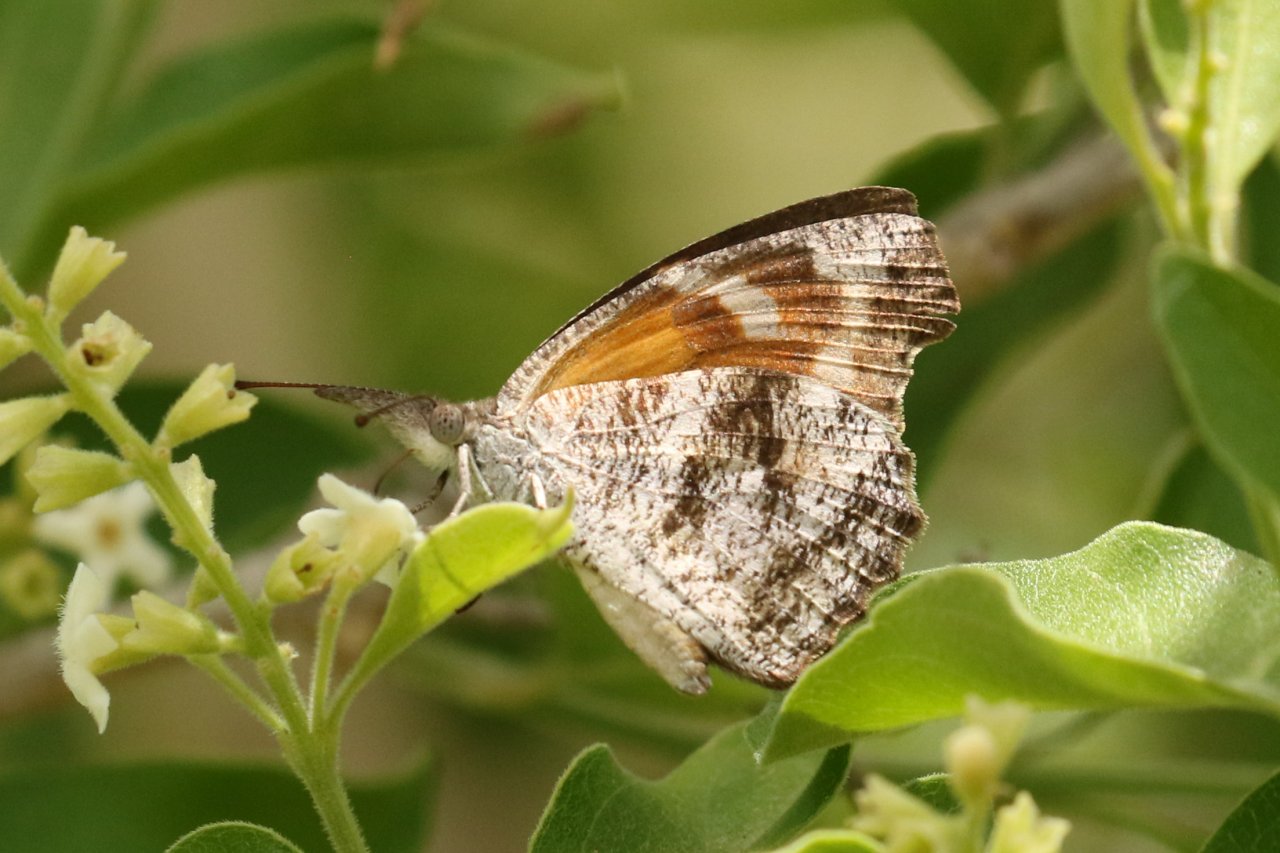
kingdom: Animalia
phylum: Arthropoda
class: Insecta
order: Lepidoptera
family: Nymphalidae
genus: Libytheana
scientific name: Libytheana carinenta
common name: American Snout
